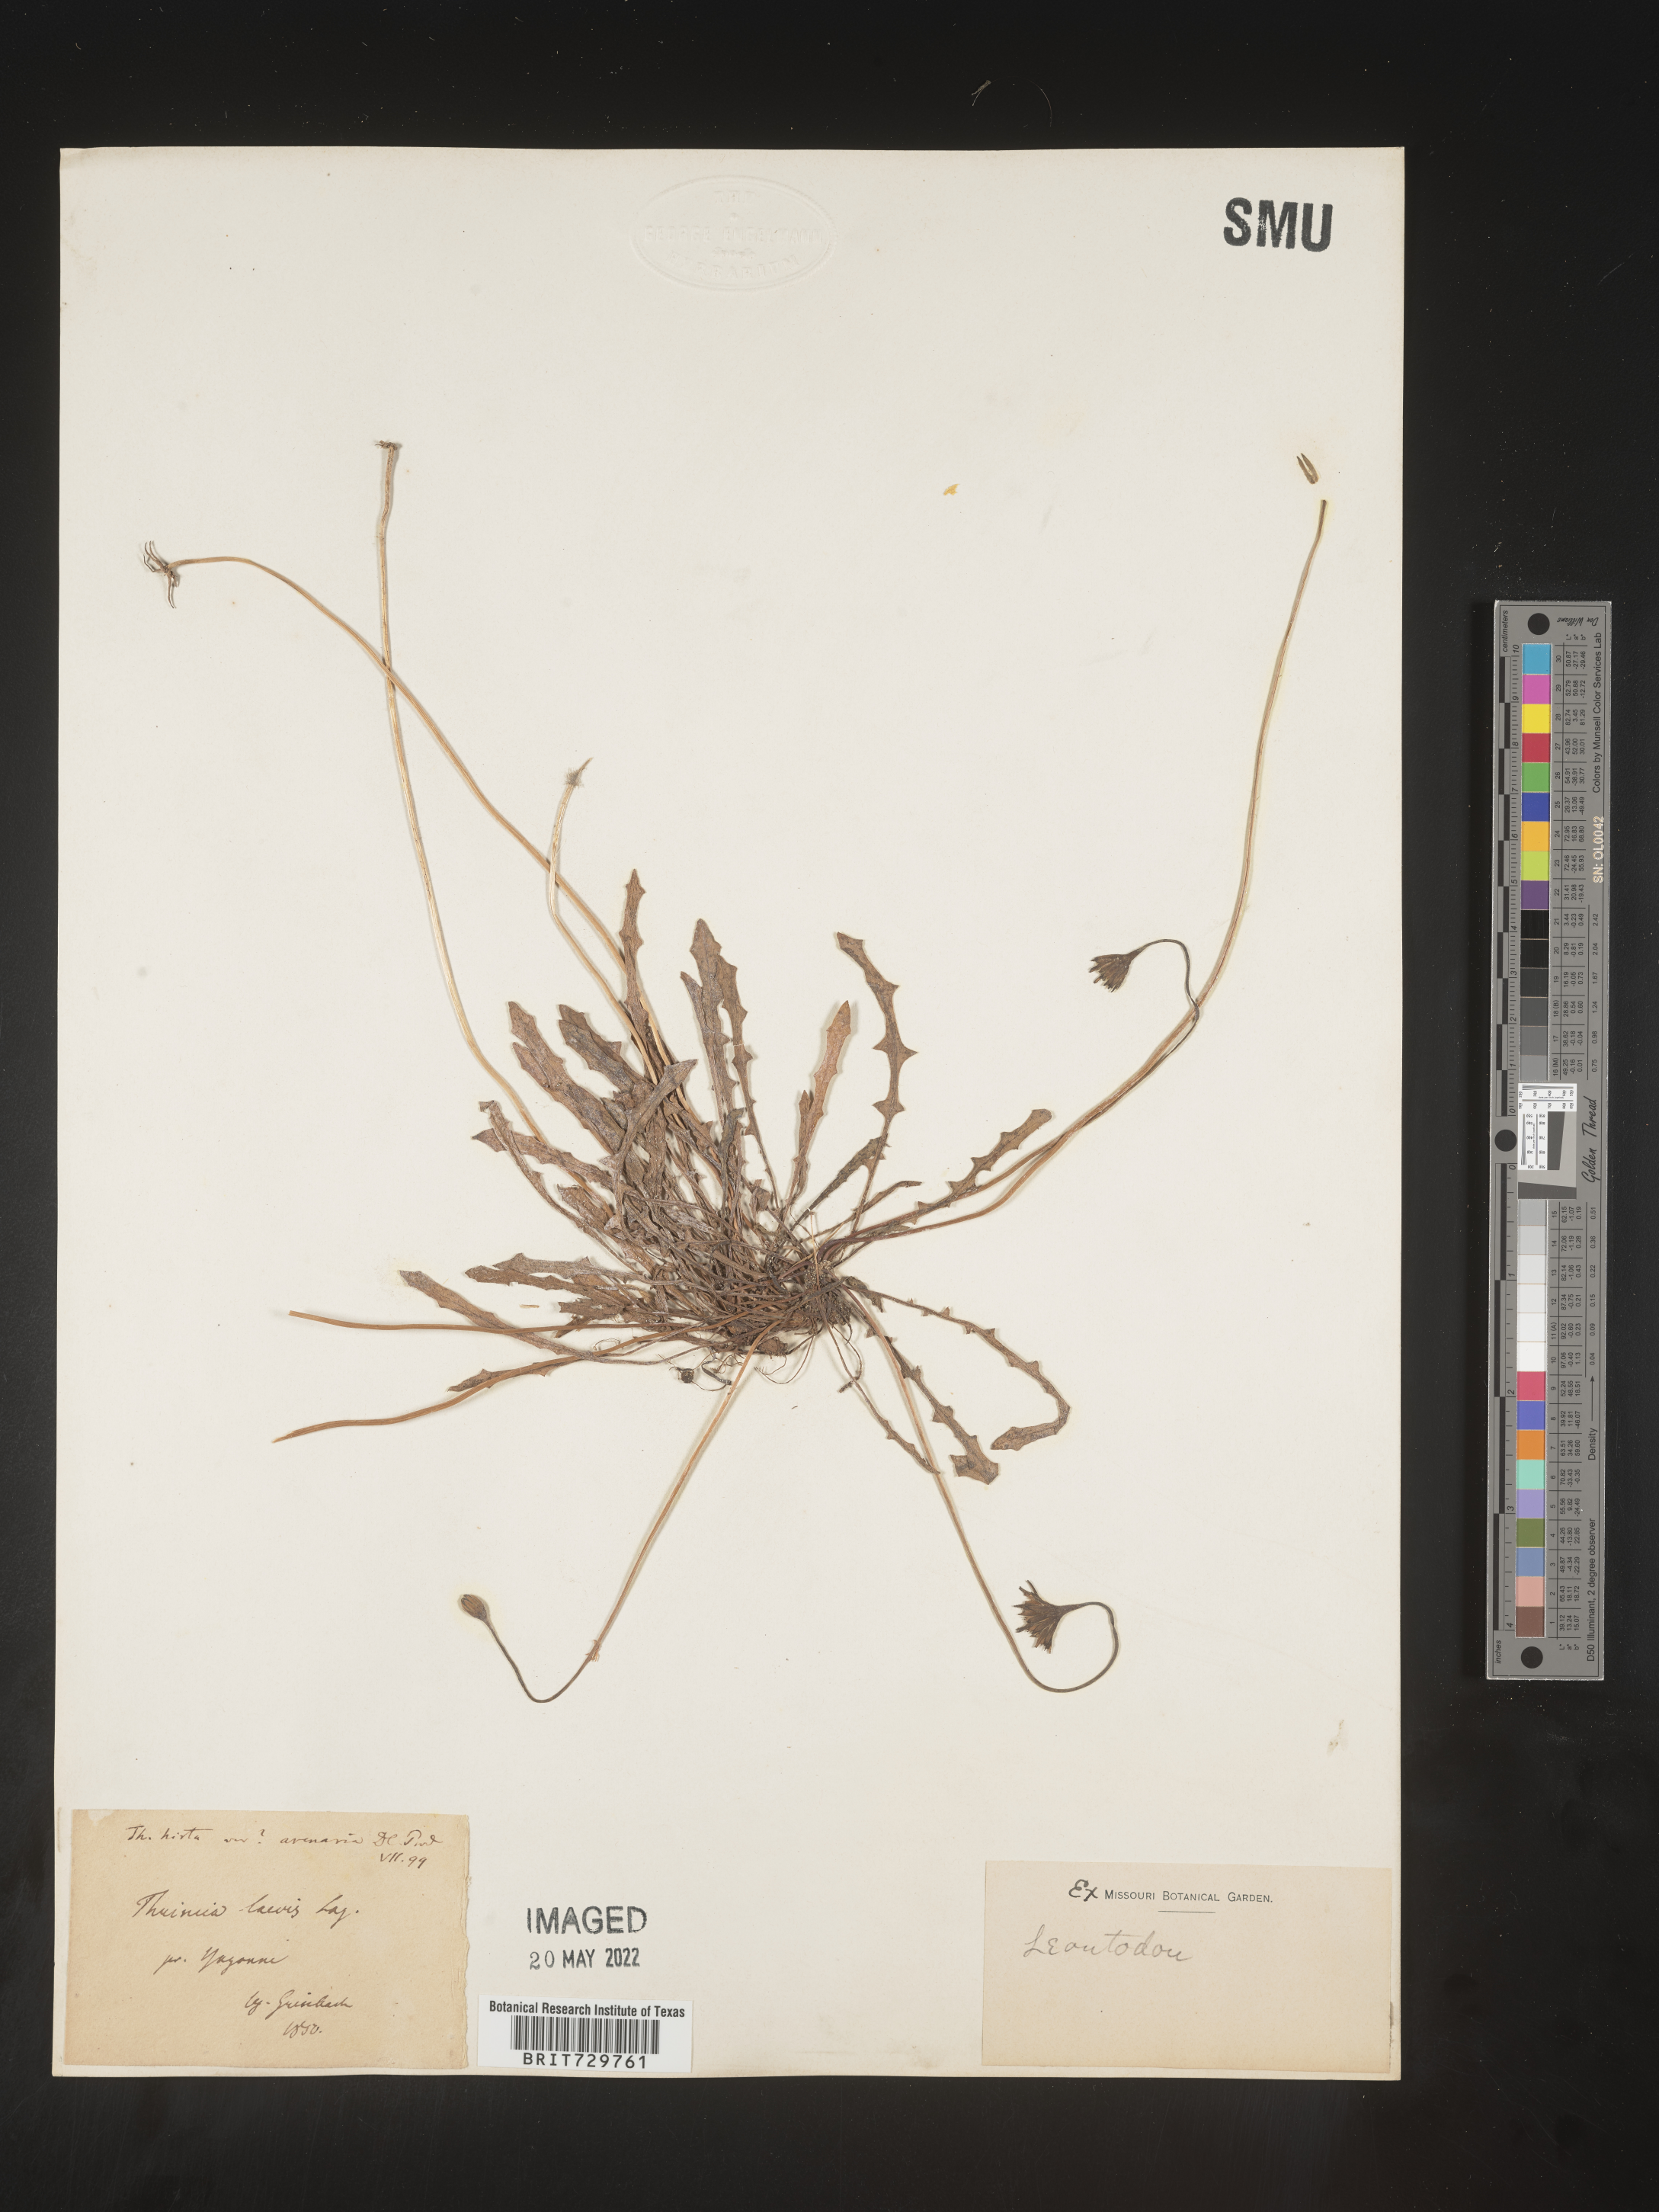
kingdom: Plantae
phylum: Tracheophyta
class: Magnoliopsida
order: Asterales
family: Asteraceae
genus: Leontodon
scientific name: Leontodon
